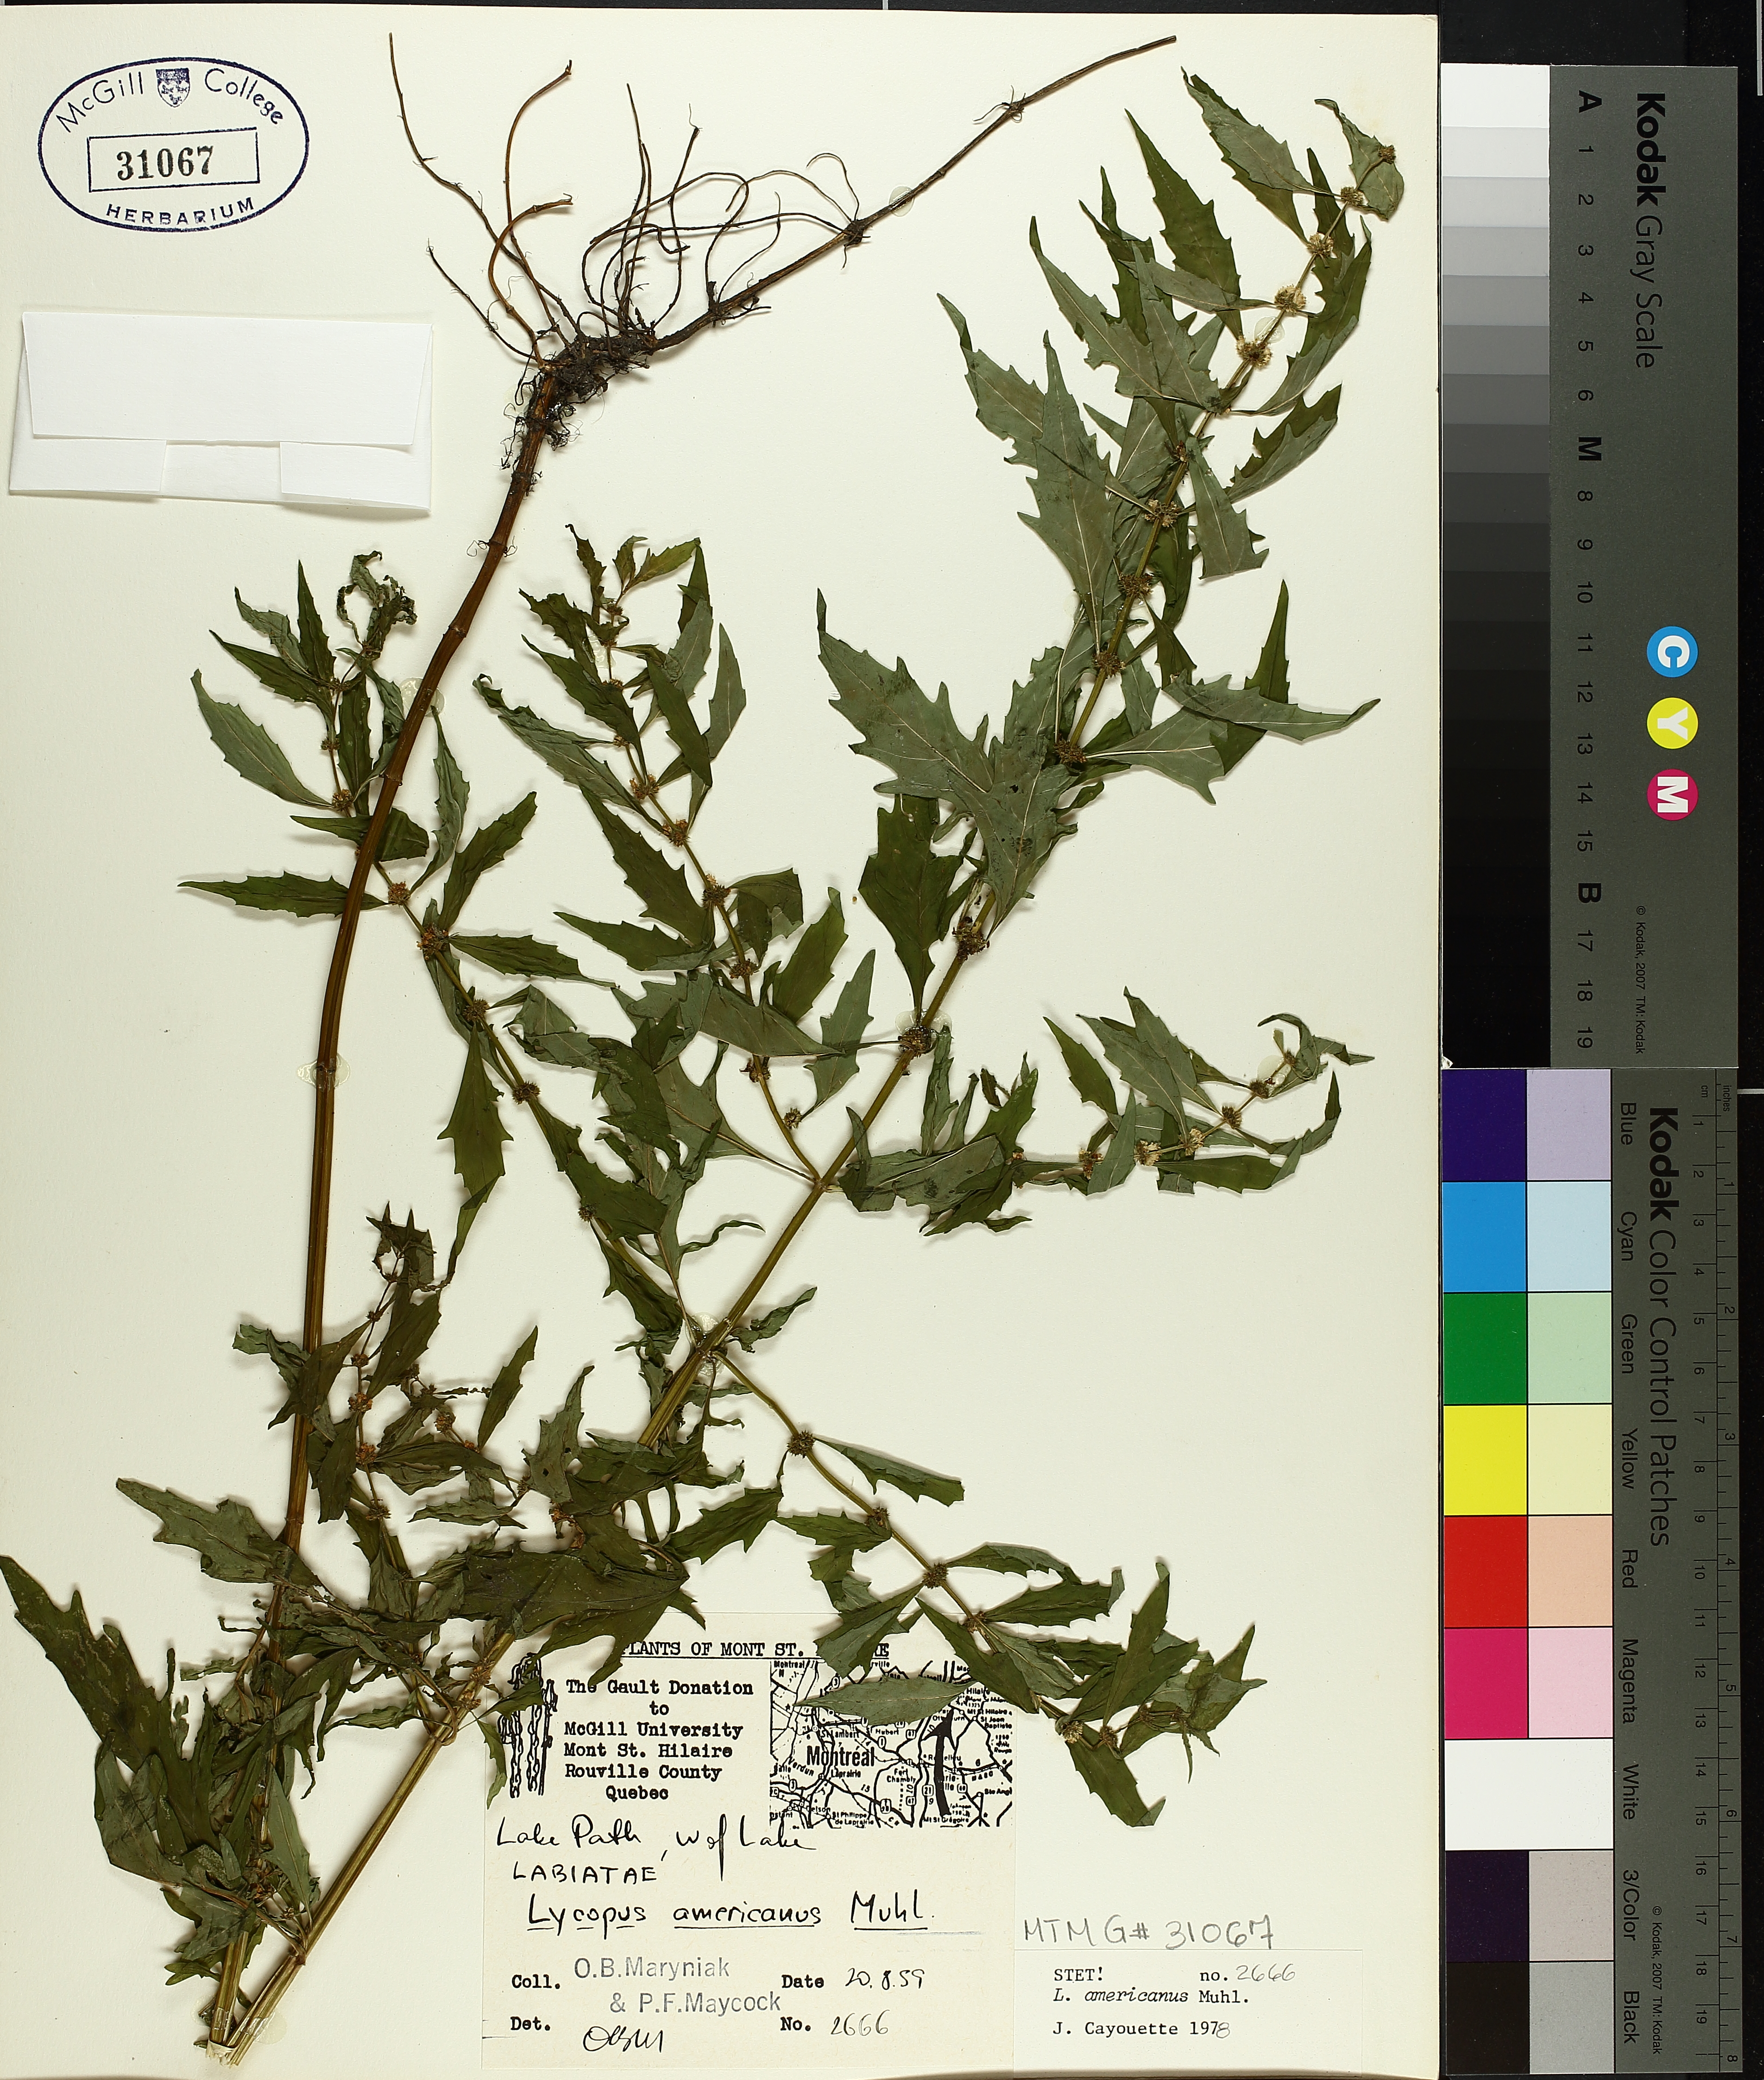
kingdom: Plantae
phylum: Tracheophyta
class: Magnoliopsida
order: Lamiales
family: Lamiaceae
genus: Lycopus
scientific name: Lycopus americanus
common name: American bugleweed
